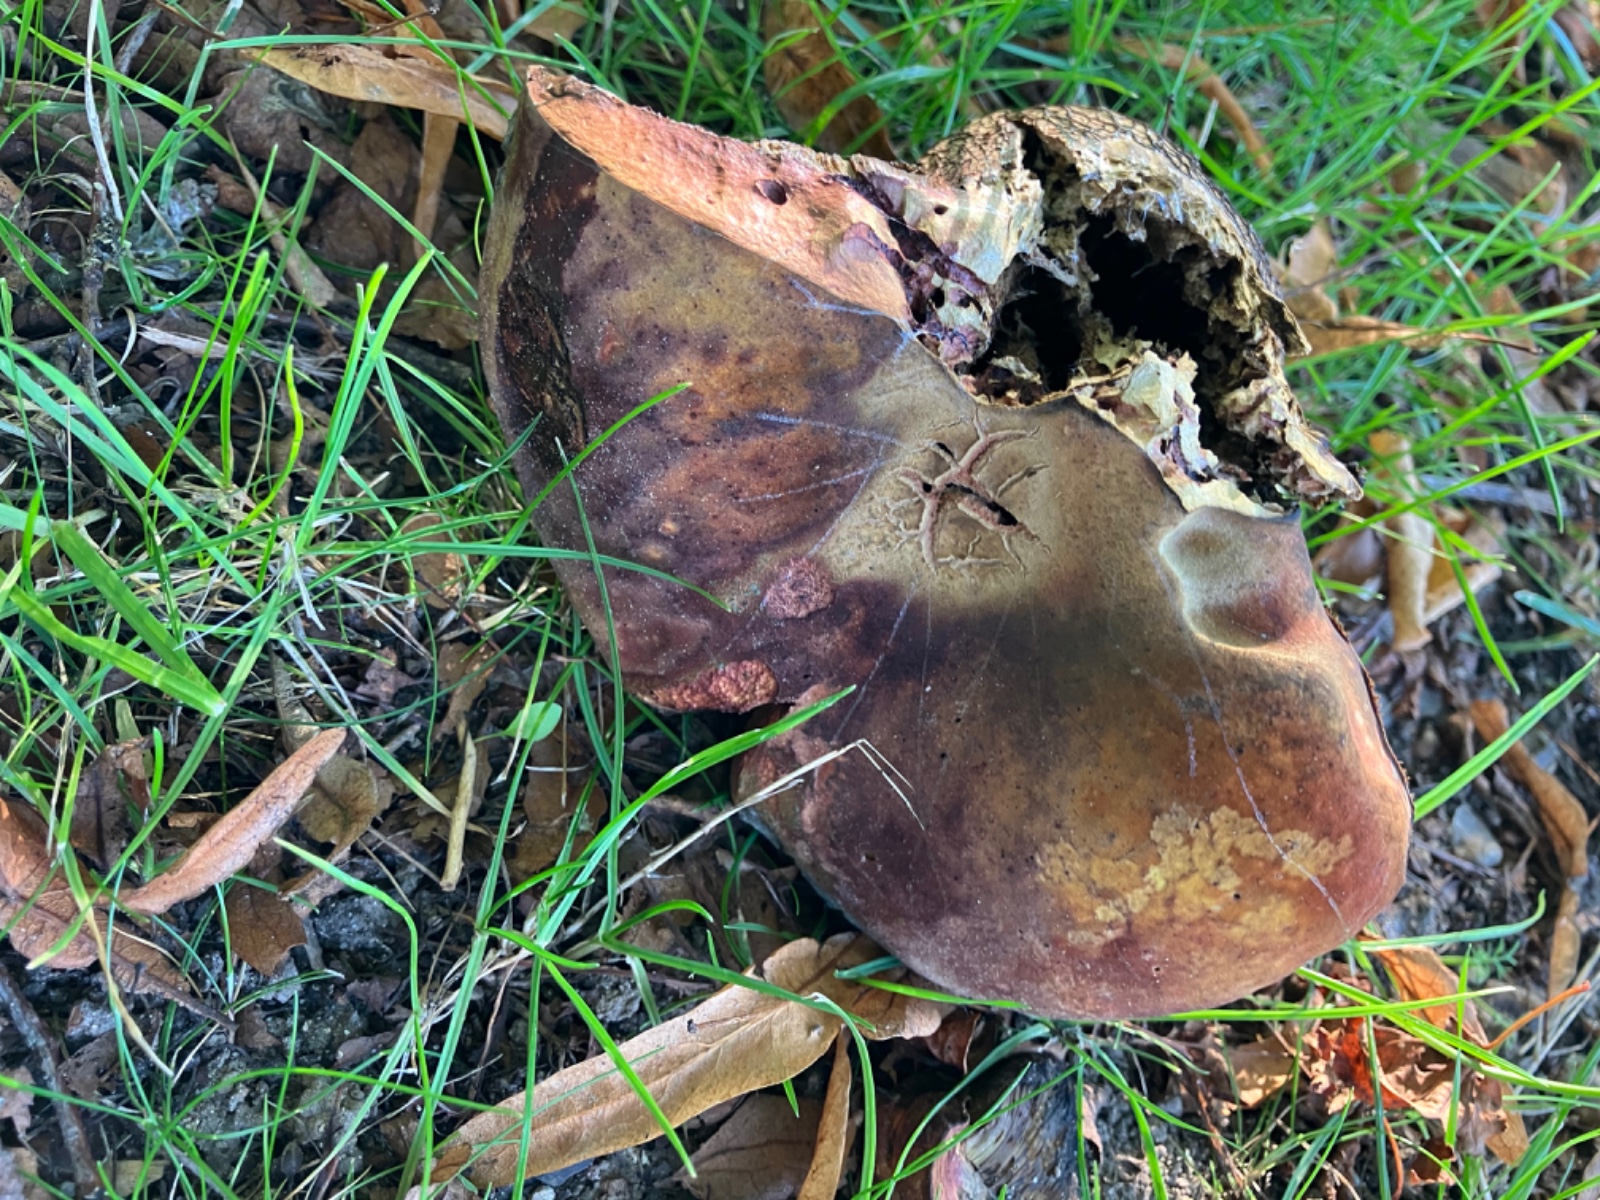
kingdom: Fungi
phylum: Basidiomycota
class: Agaricomycetes
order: Boletales
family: Boletaceae
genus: Suillellus
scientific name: Suillellus luridus
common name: netstokket indigorørhat
